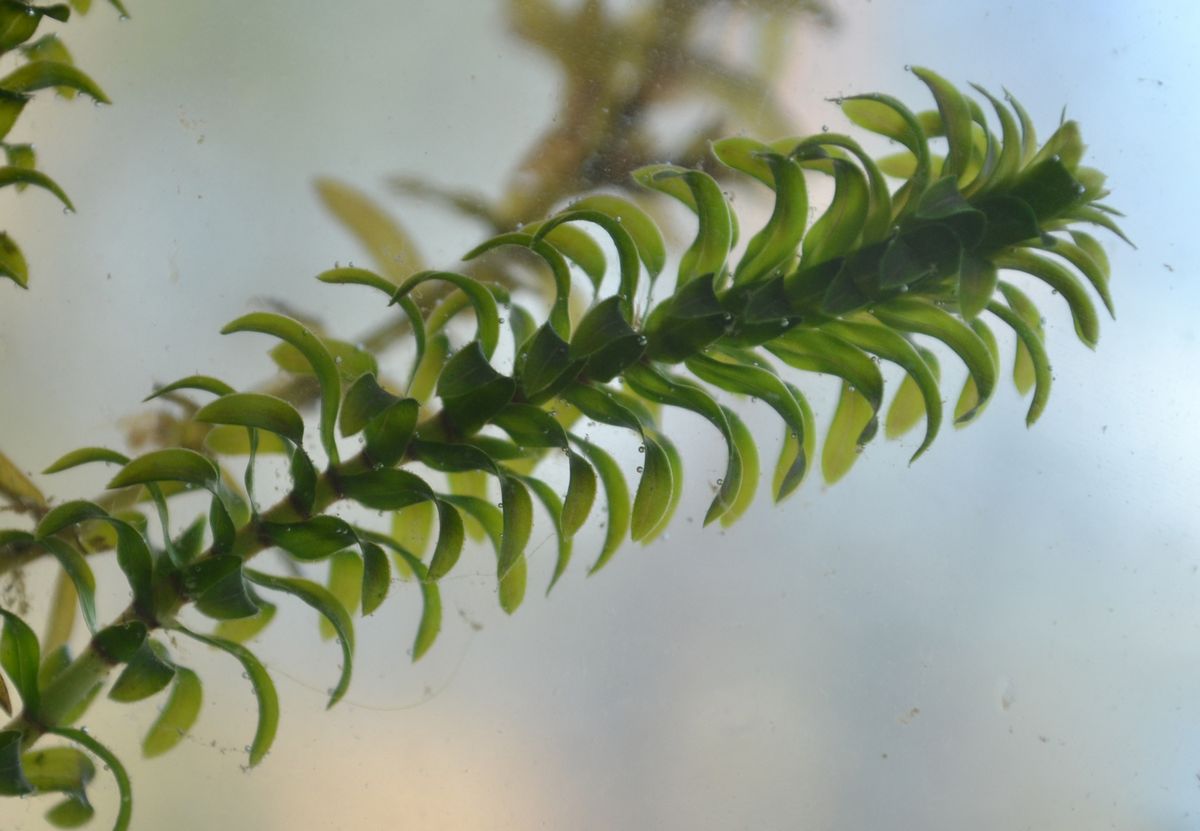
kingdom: Plantae
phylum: Tracheophyta
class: Liliopsida
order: Alismatales
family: Hydrocharitaceae
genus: Elodea
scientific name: Elodea canadensis
